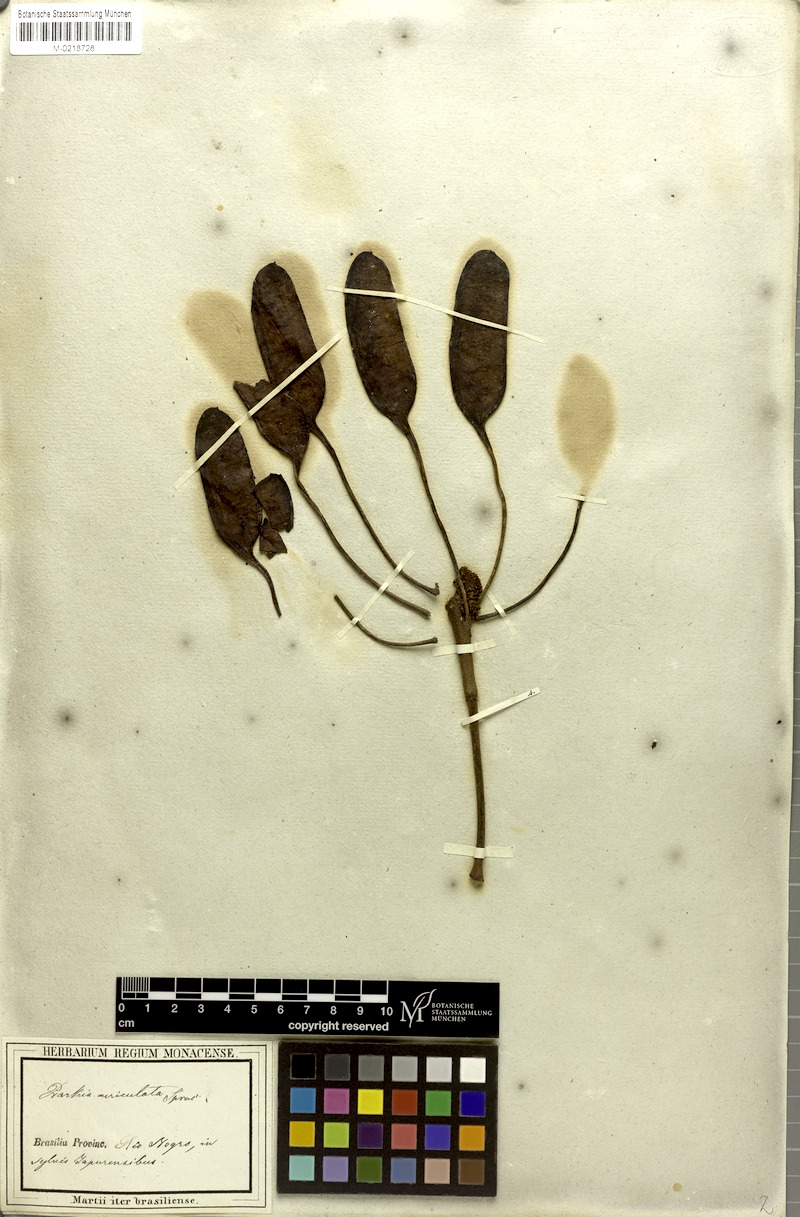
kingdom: Plantae
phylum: Tracheophyta
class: Magnoliopsida
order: Fabales
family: Fabaceae
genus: Parkia
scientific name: Parkia discolor
